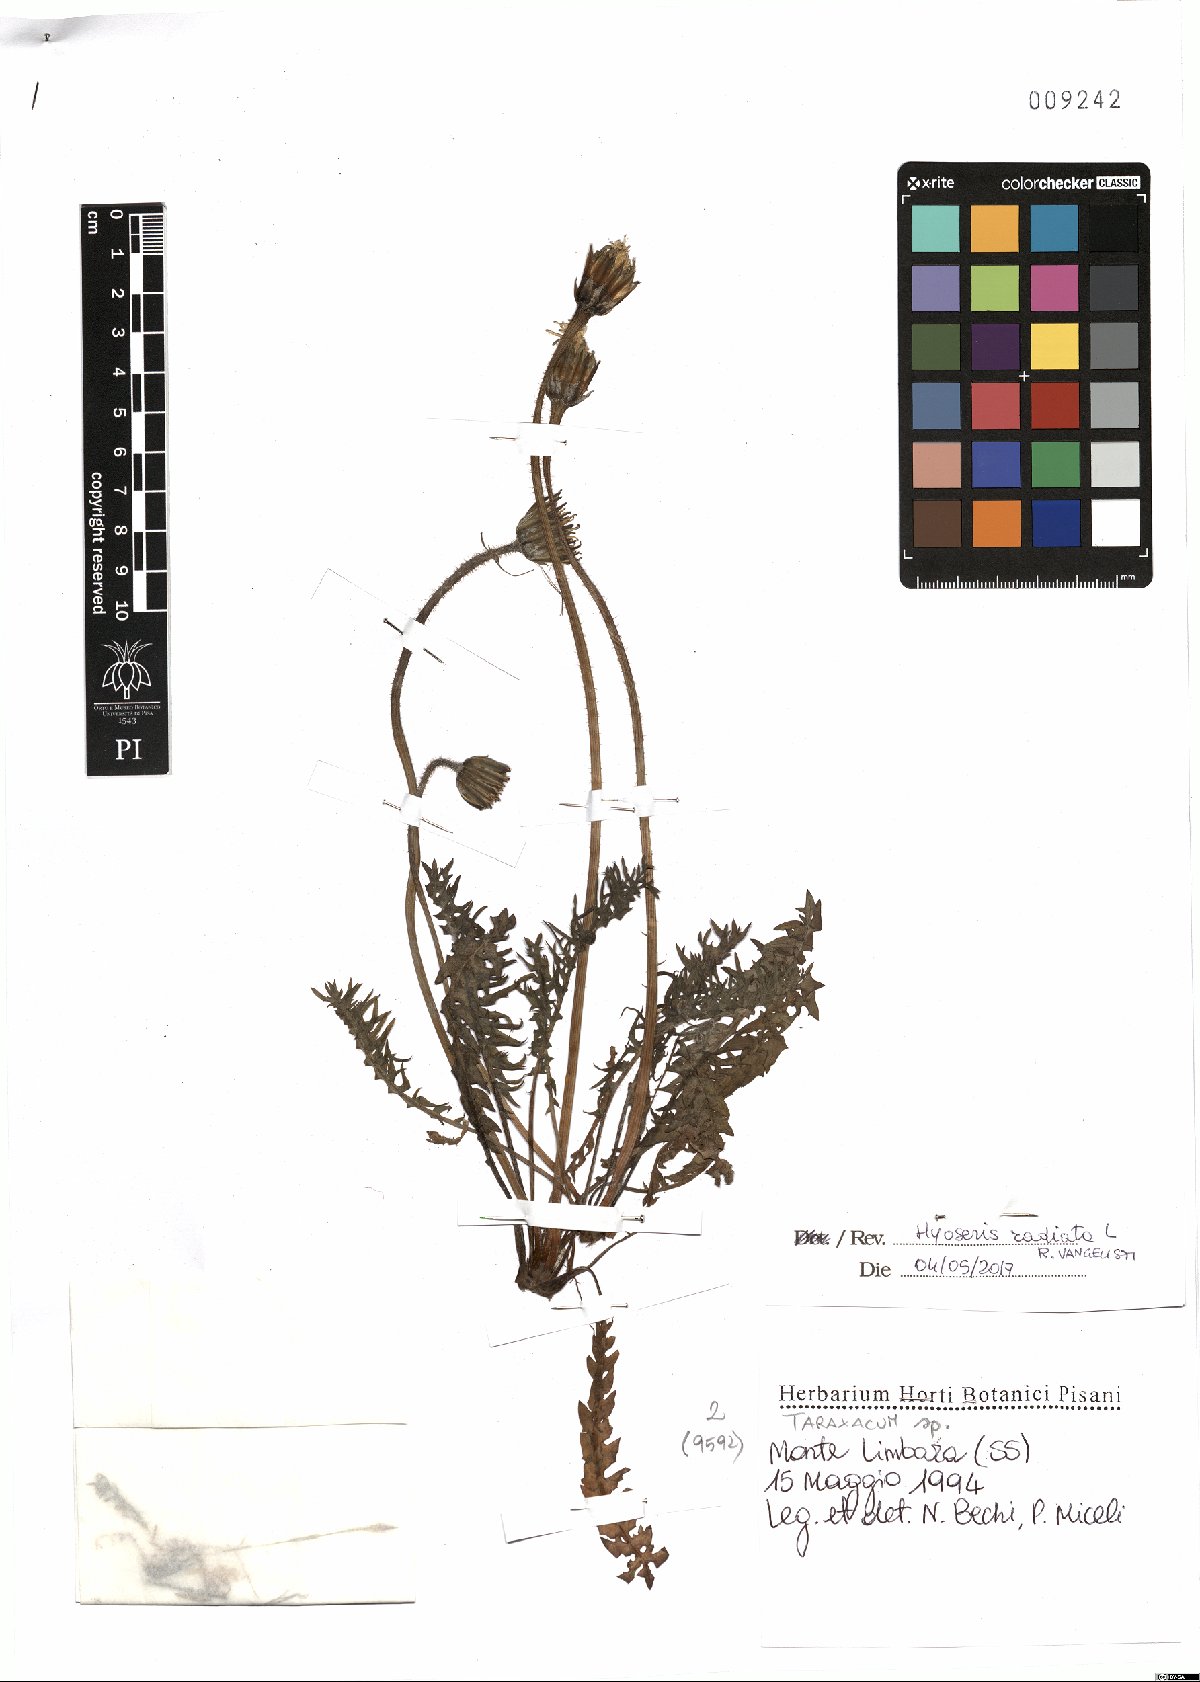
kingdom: Plantae
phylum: Tracheophyta
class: Magnoliopsida
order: Asterales
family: Asteraceae
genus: Hyoseris
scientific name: Hyoseris radiata
